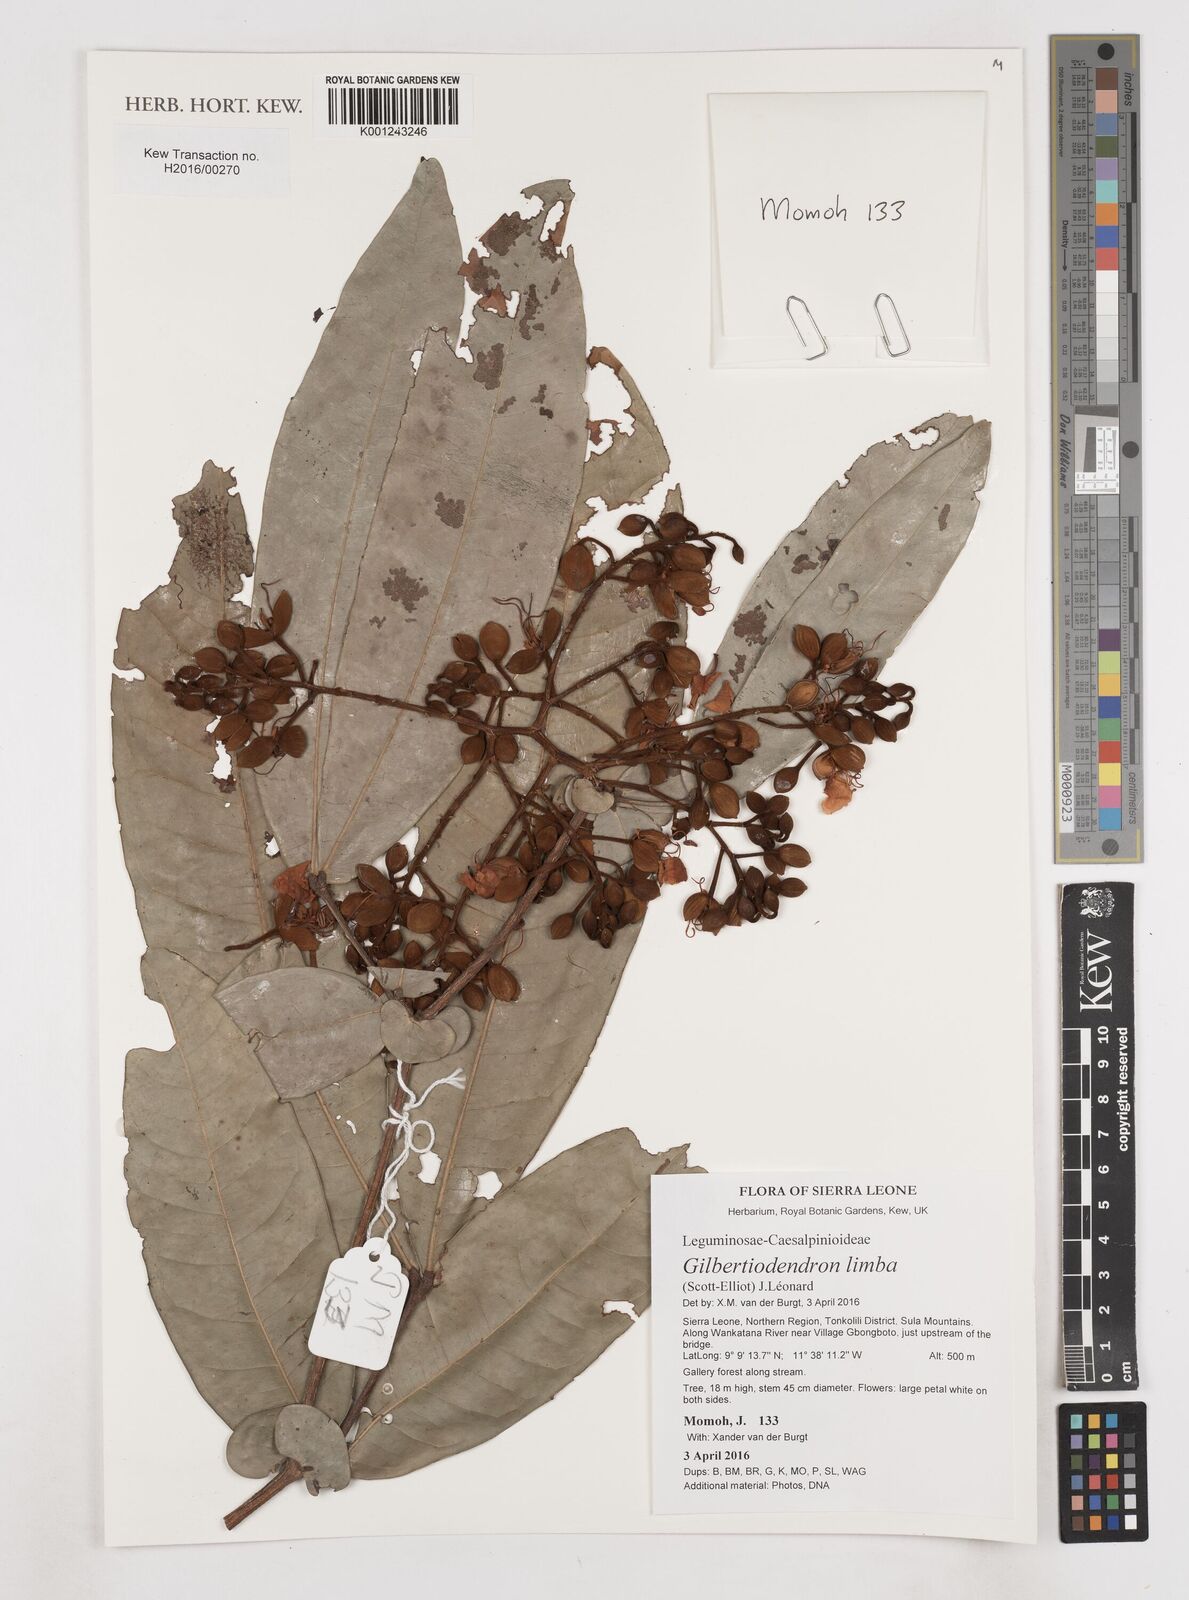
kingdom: Plantae
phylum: Tracheophyta
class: Magnoliopsida
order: Fabales
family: Fabaceae
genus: Gilbertiodendron
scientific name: Gilbertiodendron limba
